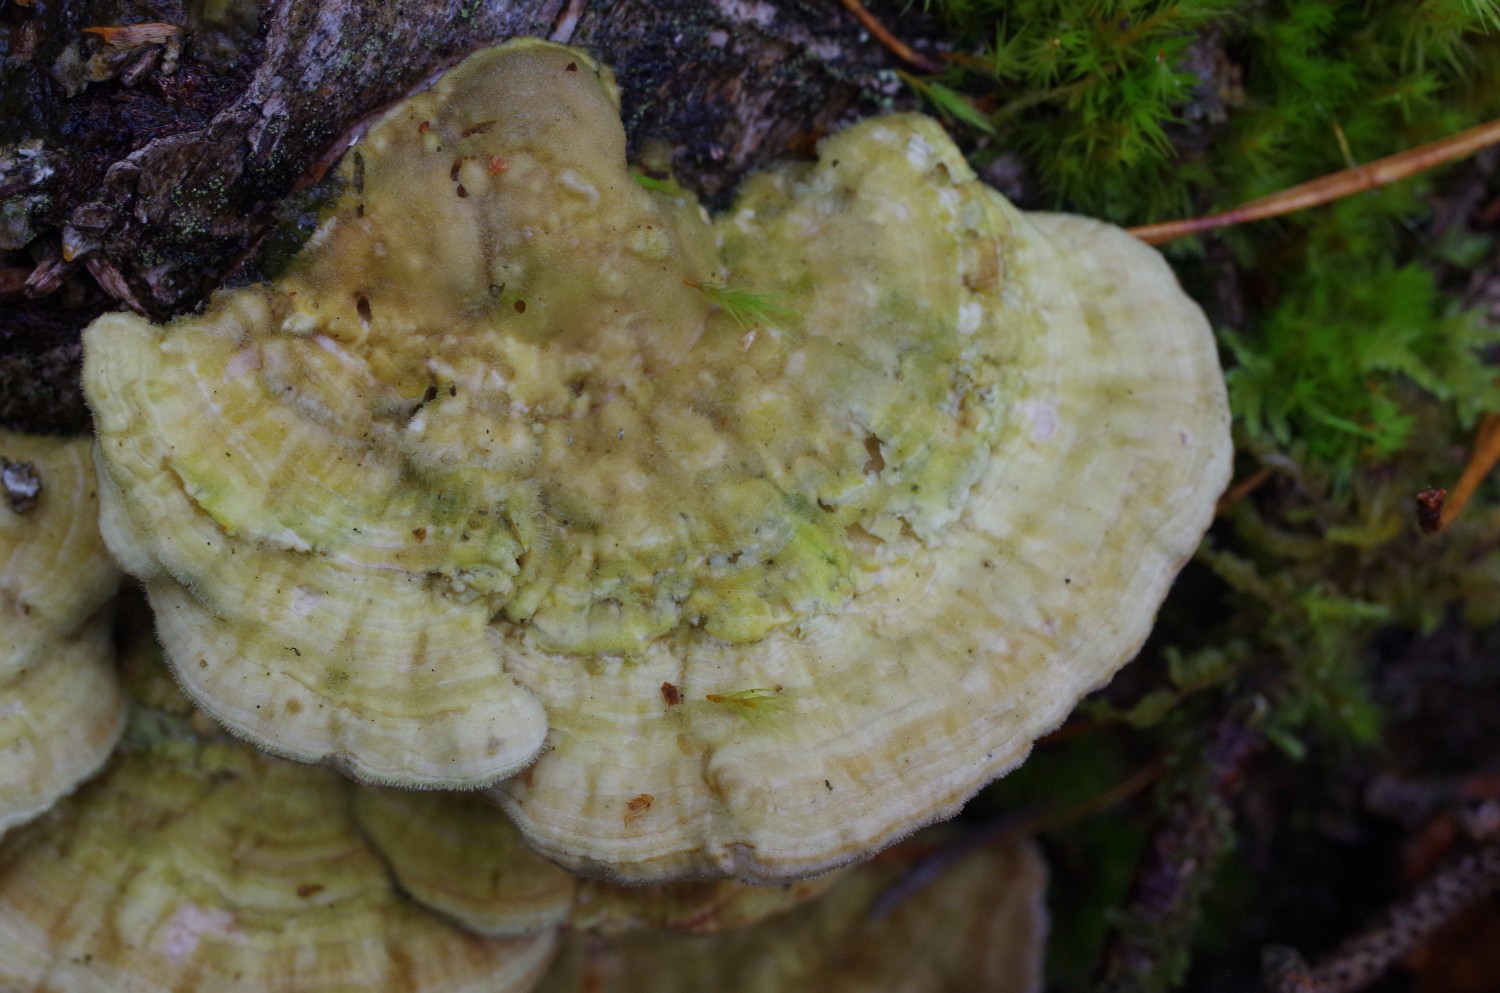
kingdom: Fungi
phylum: Basidiomycota
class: Agaricomycetes
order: Polyporales
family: Polyporaceae
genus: Lenzites
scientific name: Lenzites betulinus
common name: birke-læderporesvamp
